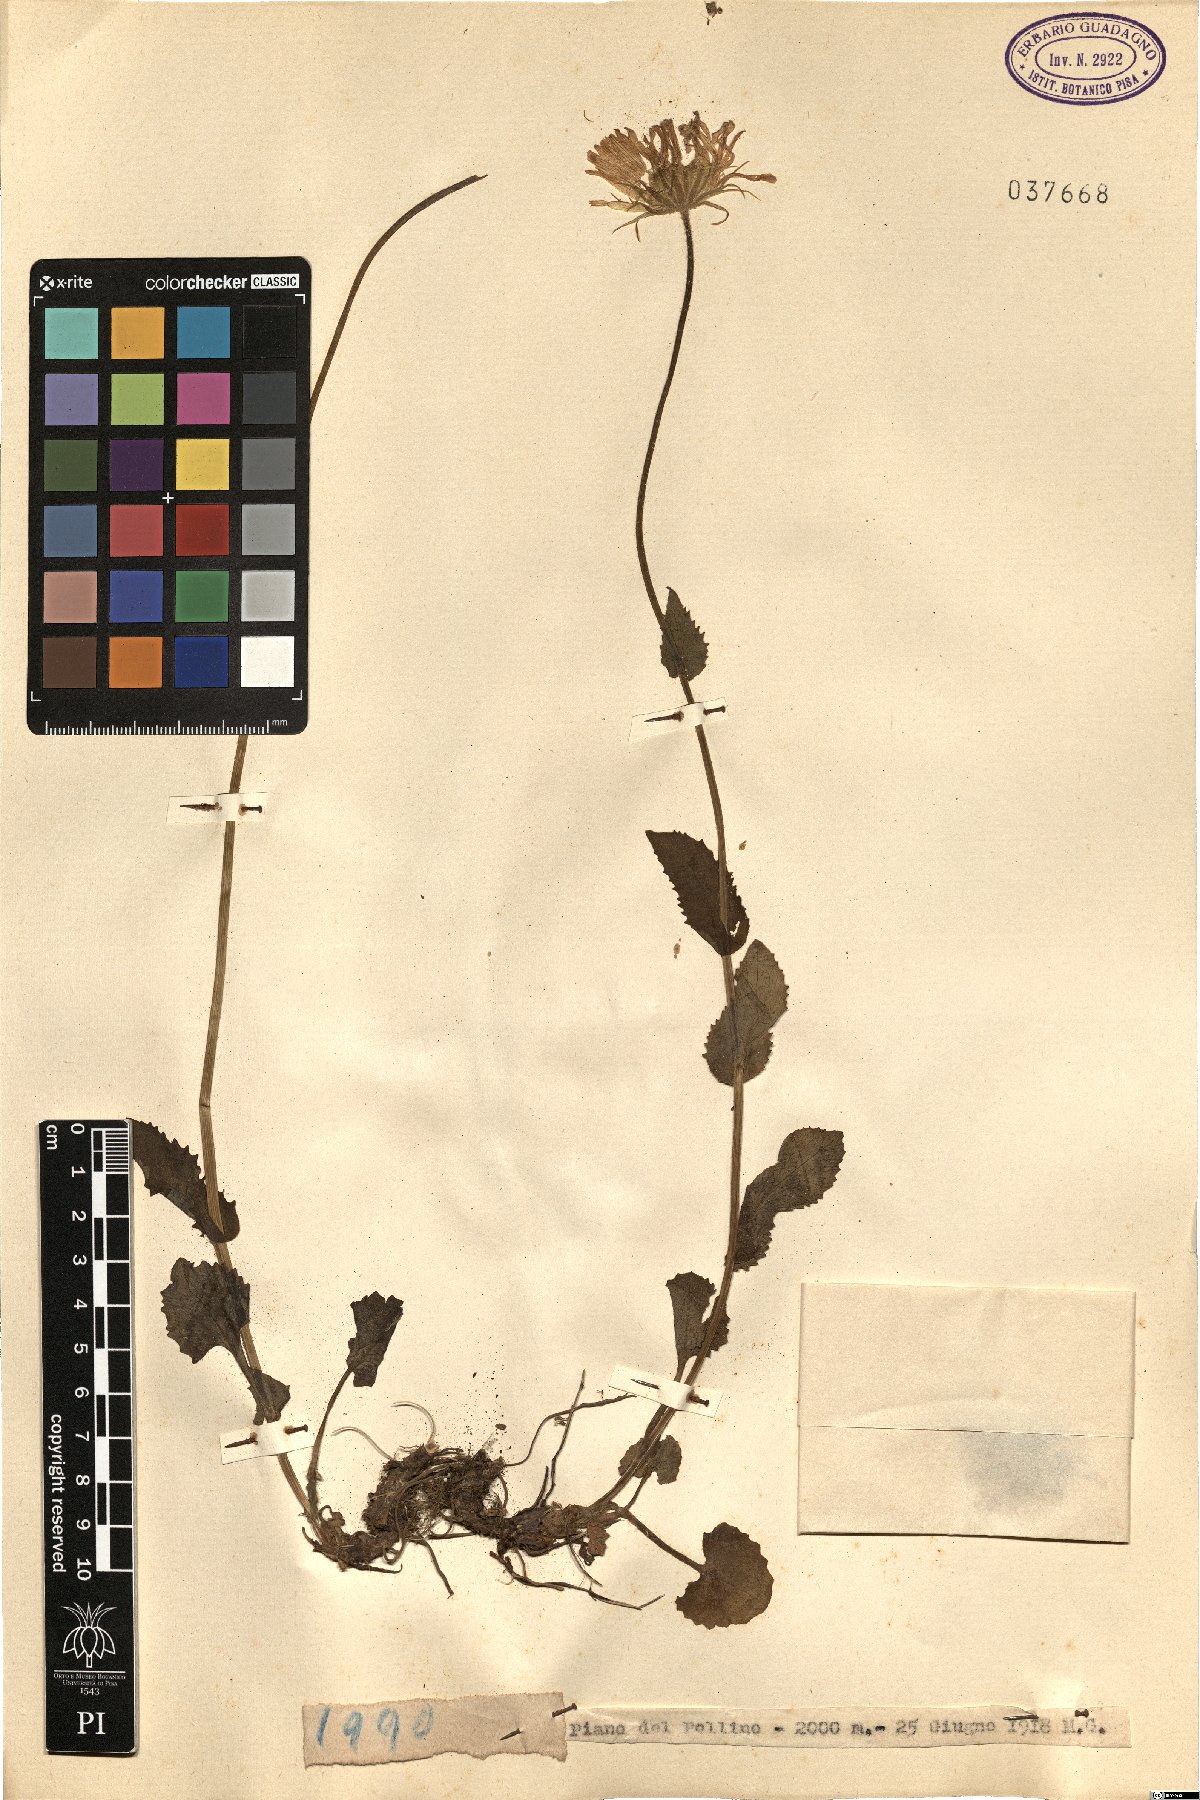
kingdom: Plantae
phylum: Tracheophyta
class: Magnoliopsida
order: Asterales
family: Asteraceae
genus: Doronicum
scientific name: Doronicum
